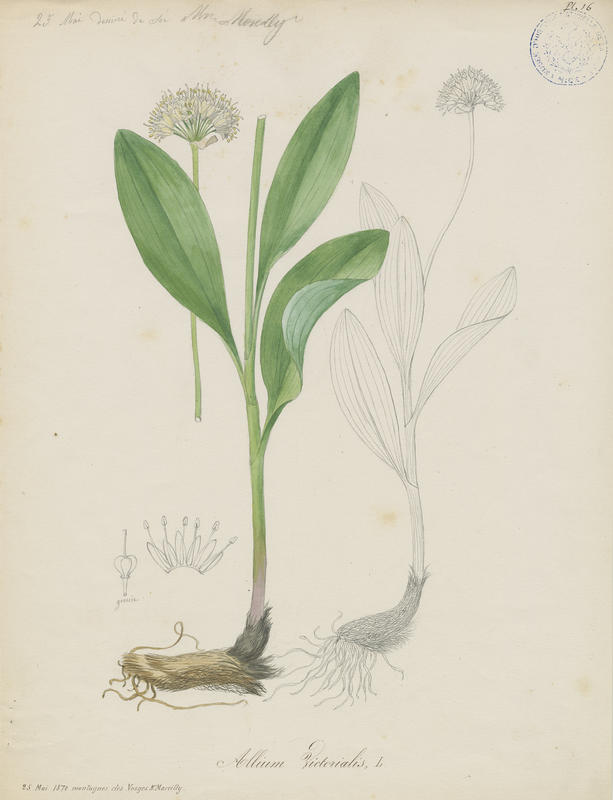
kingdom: Plantae
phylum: Tracheophyta
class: Liliopsida
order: Asparagales
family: Amaryllidaceae
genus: Allium
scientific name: Allium victorialis
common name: Alpine leek
